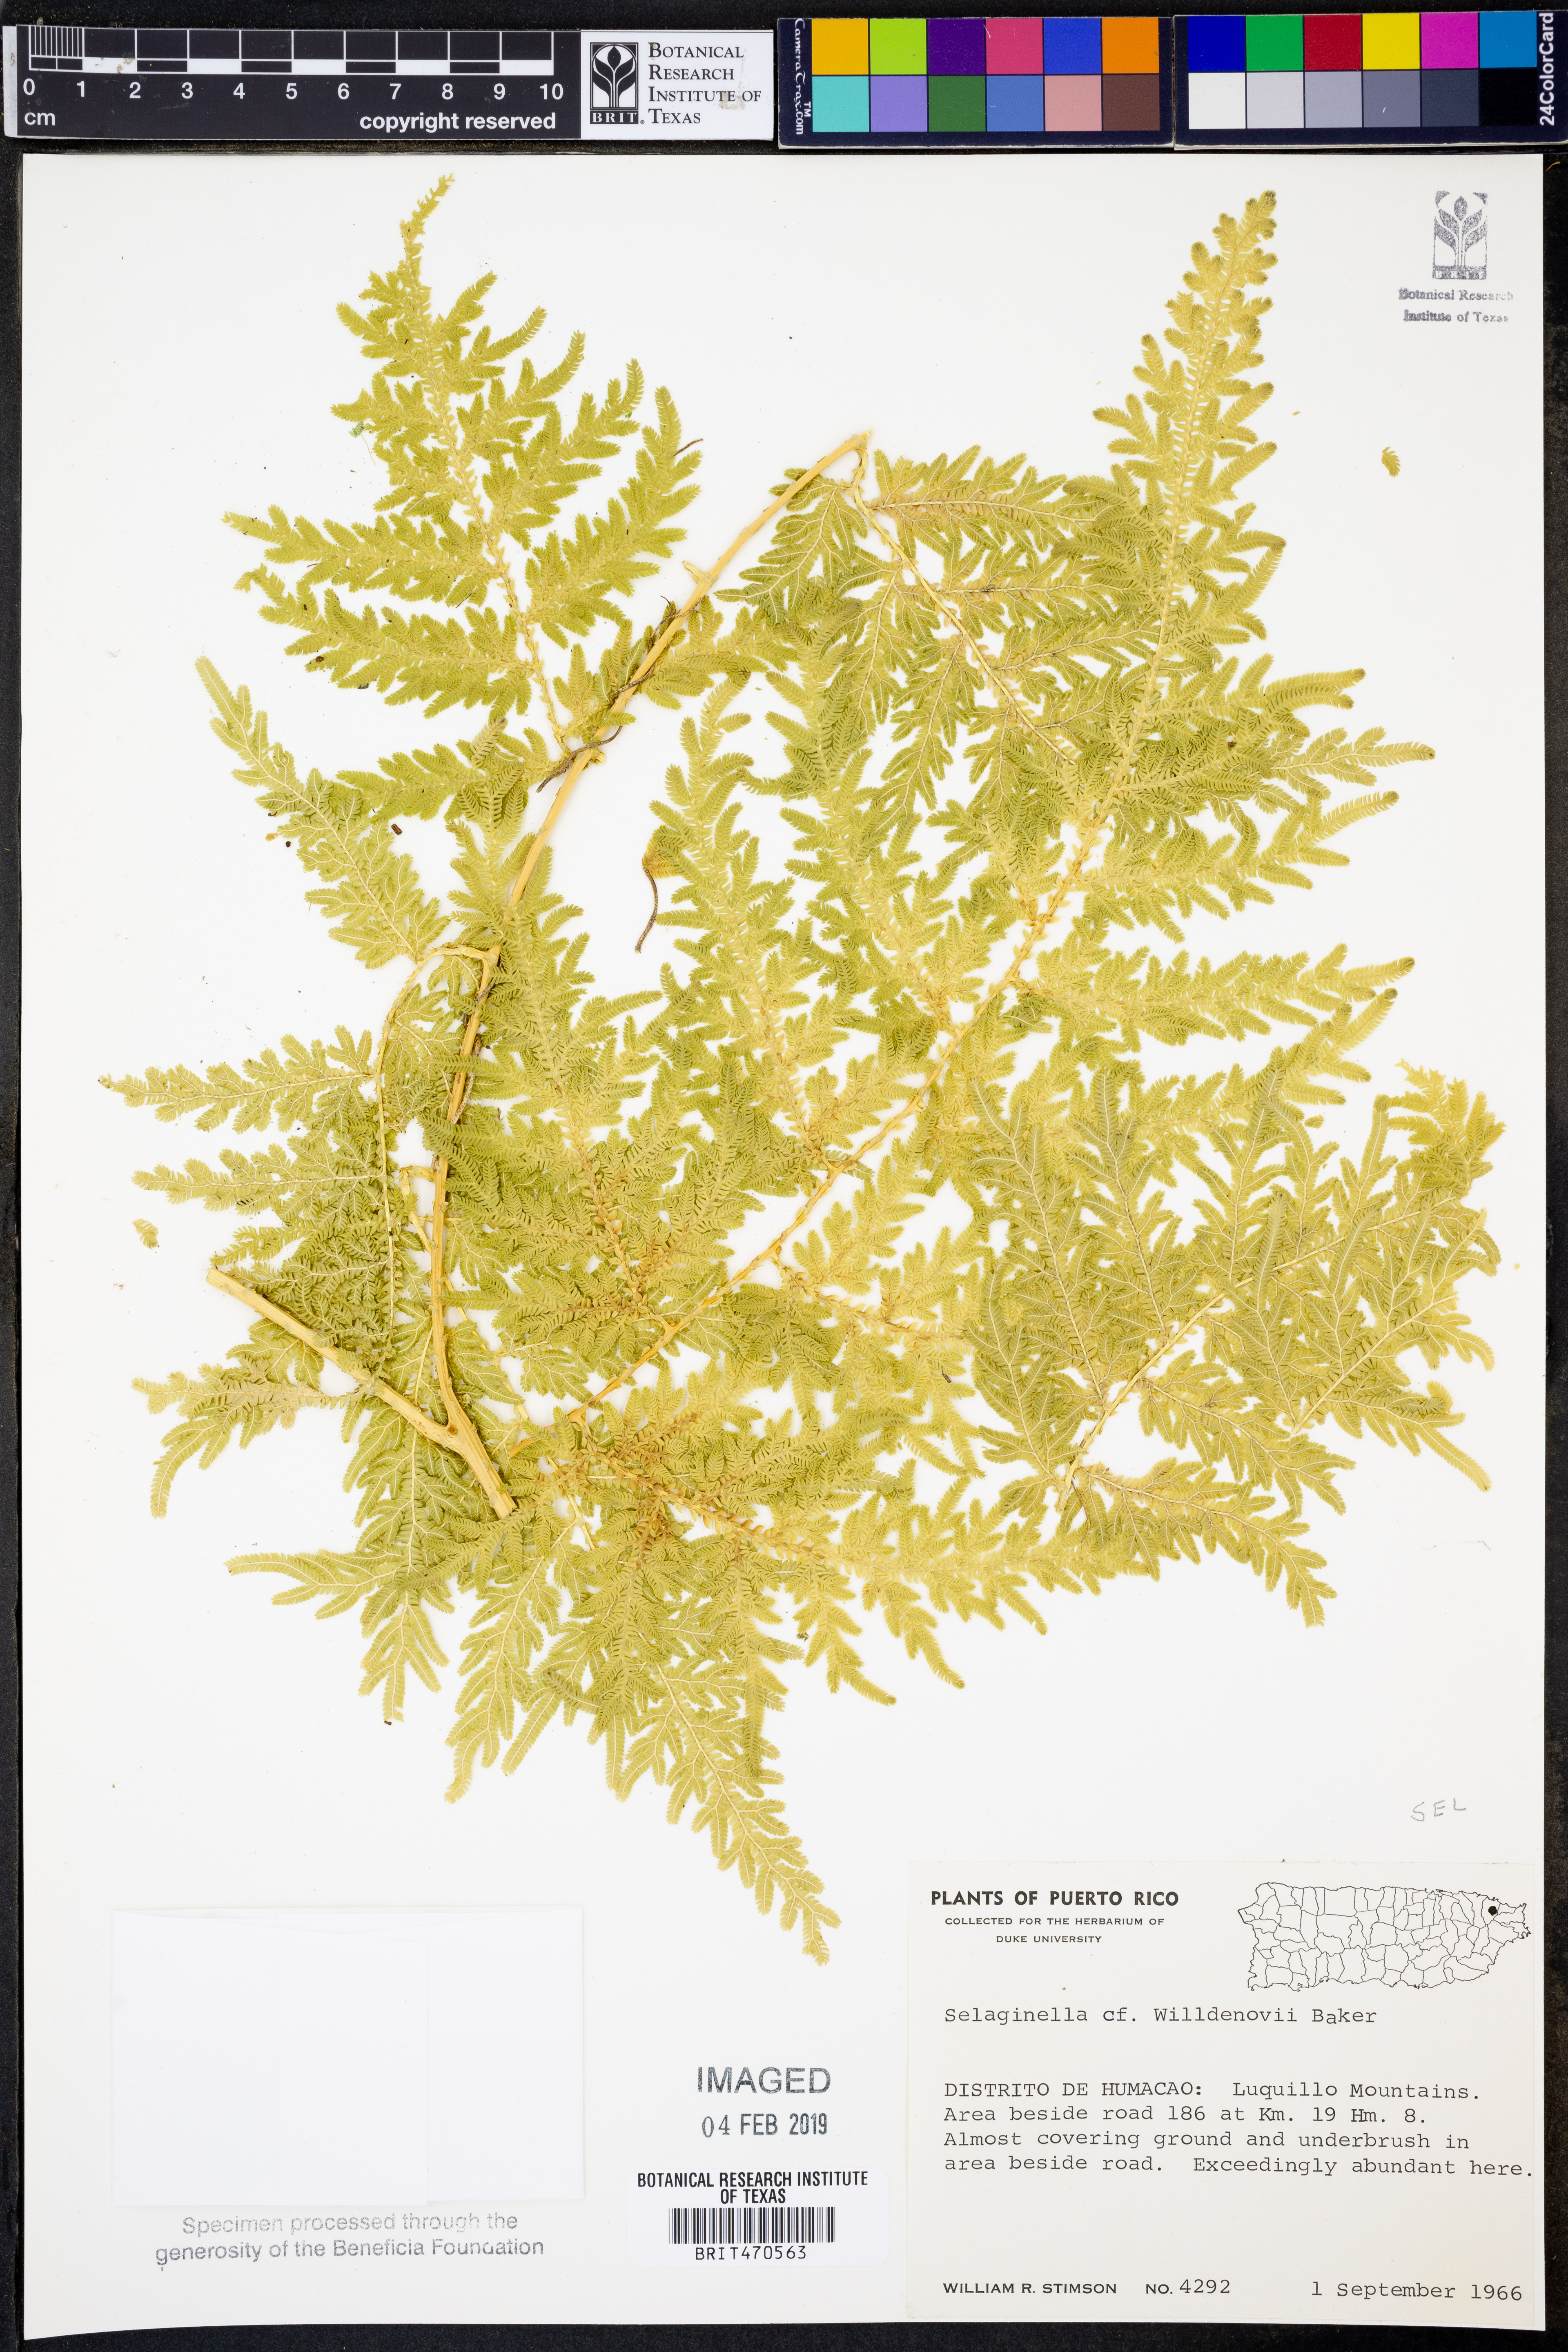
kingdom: Plantae
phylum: Tracheophyta
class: Lycopodiopsida
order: Selaginellales
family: Selaginellaceae
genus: Selaginella
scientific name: Selaginella willdenowii
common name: Willdenow's spikemoss
